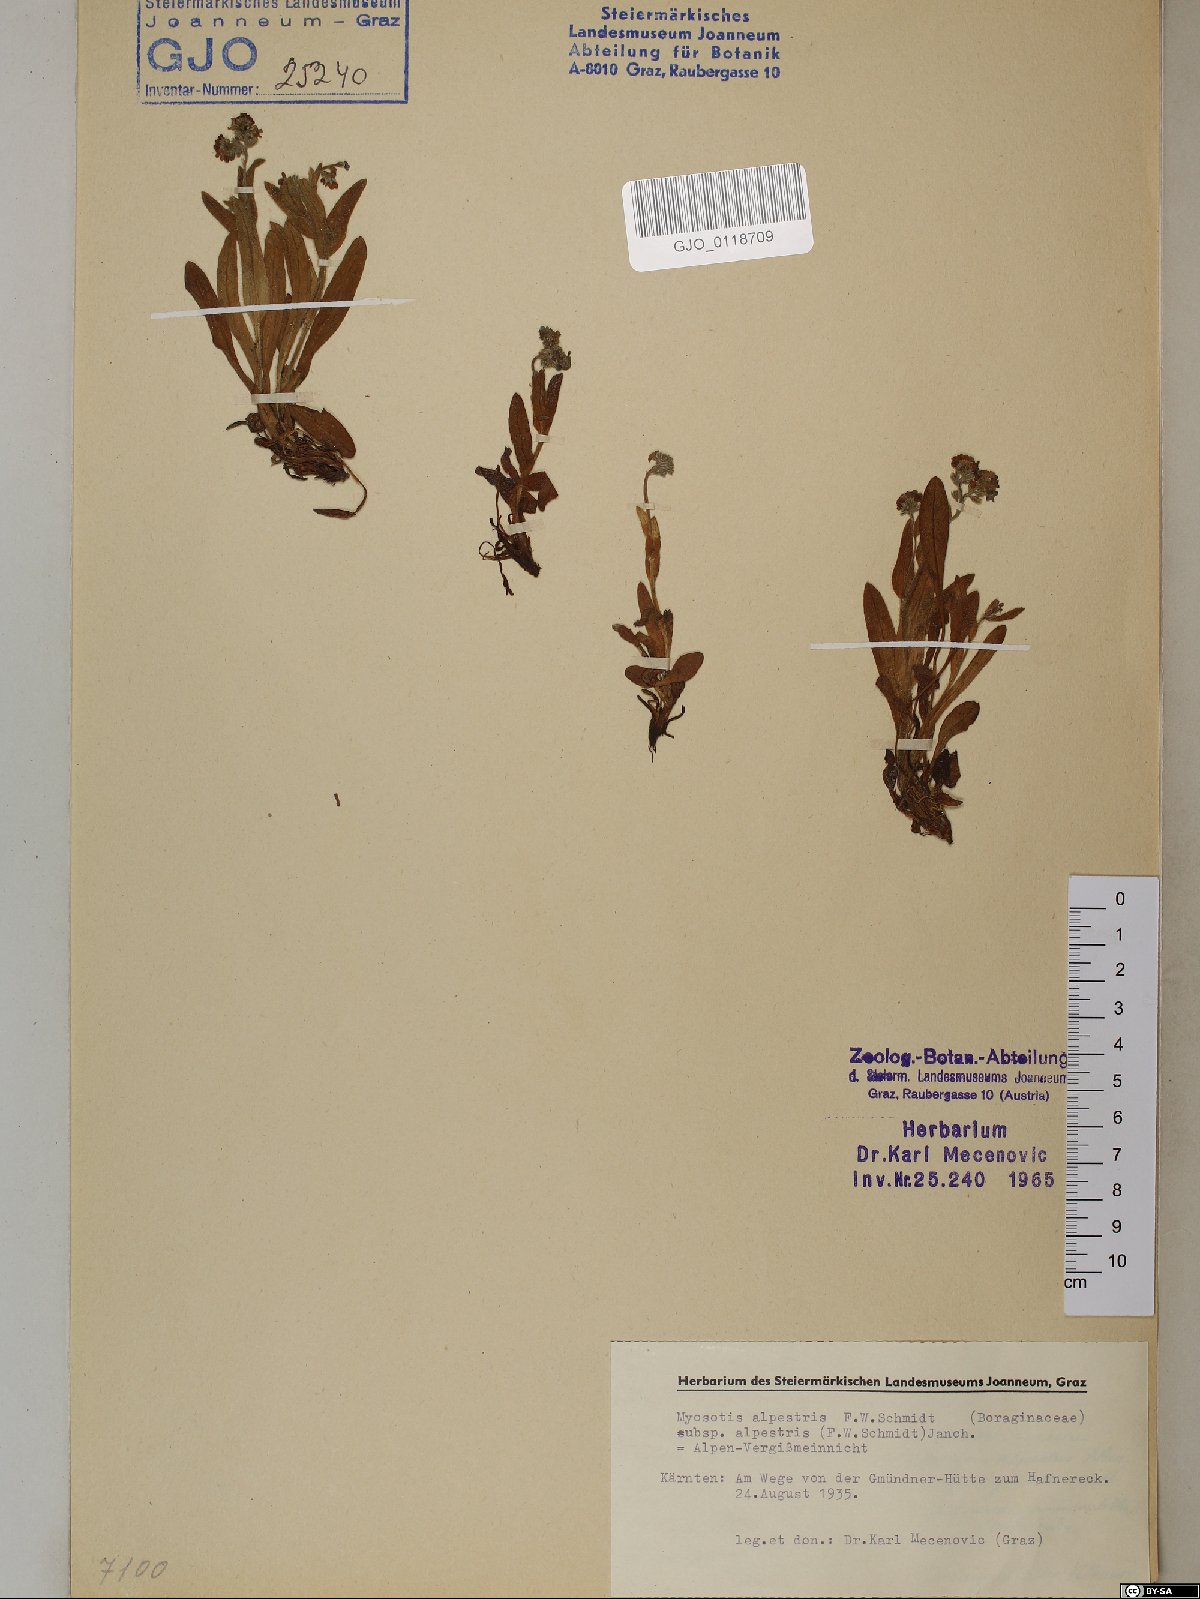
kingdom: Plantae
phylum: Tracheophyta
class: Magnoliopsida
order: Boraginales
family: Boraginaceae
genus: Myosotis
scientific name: Myosotis alpestris
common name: Alpine forget-me-not
